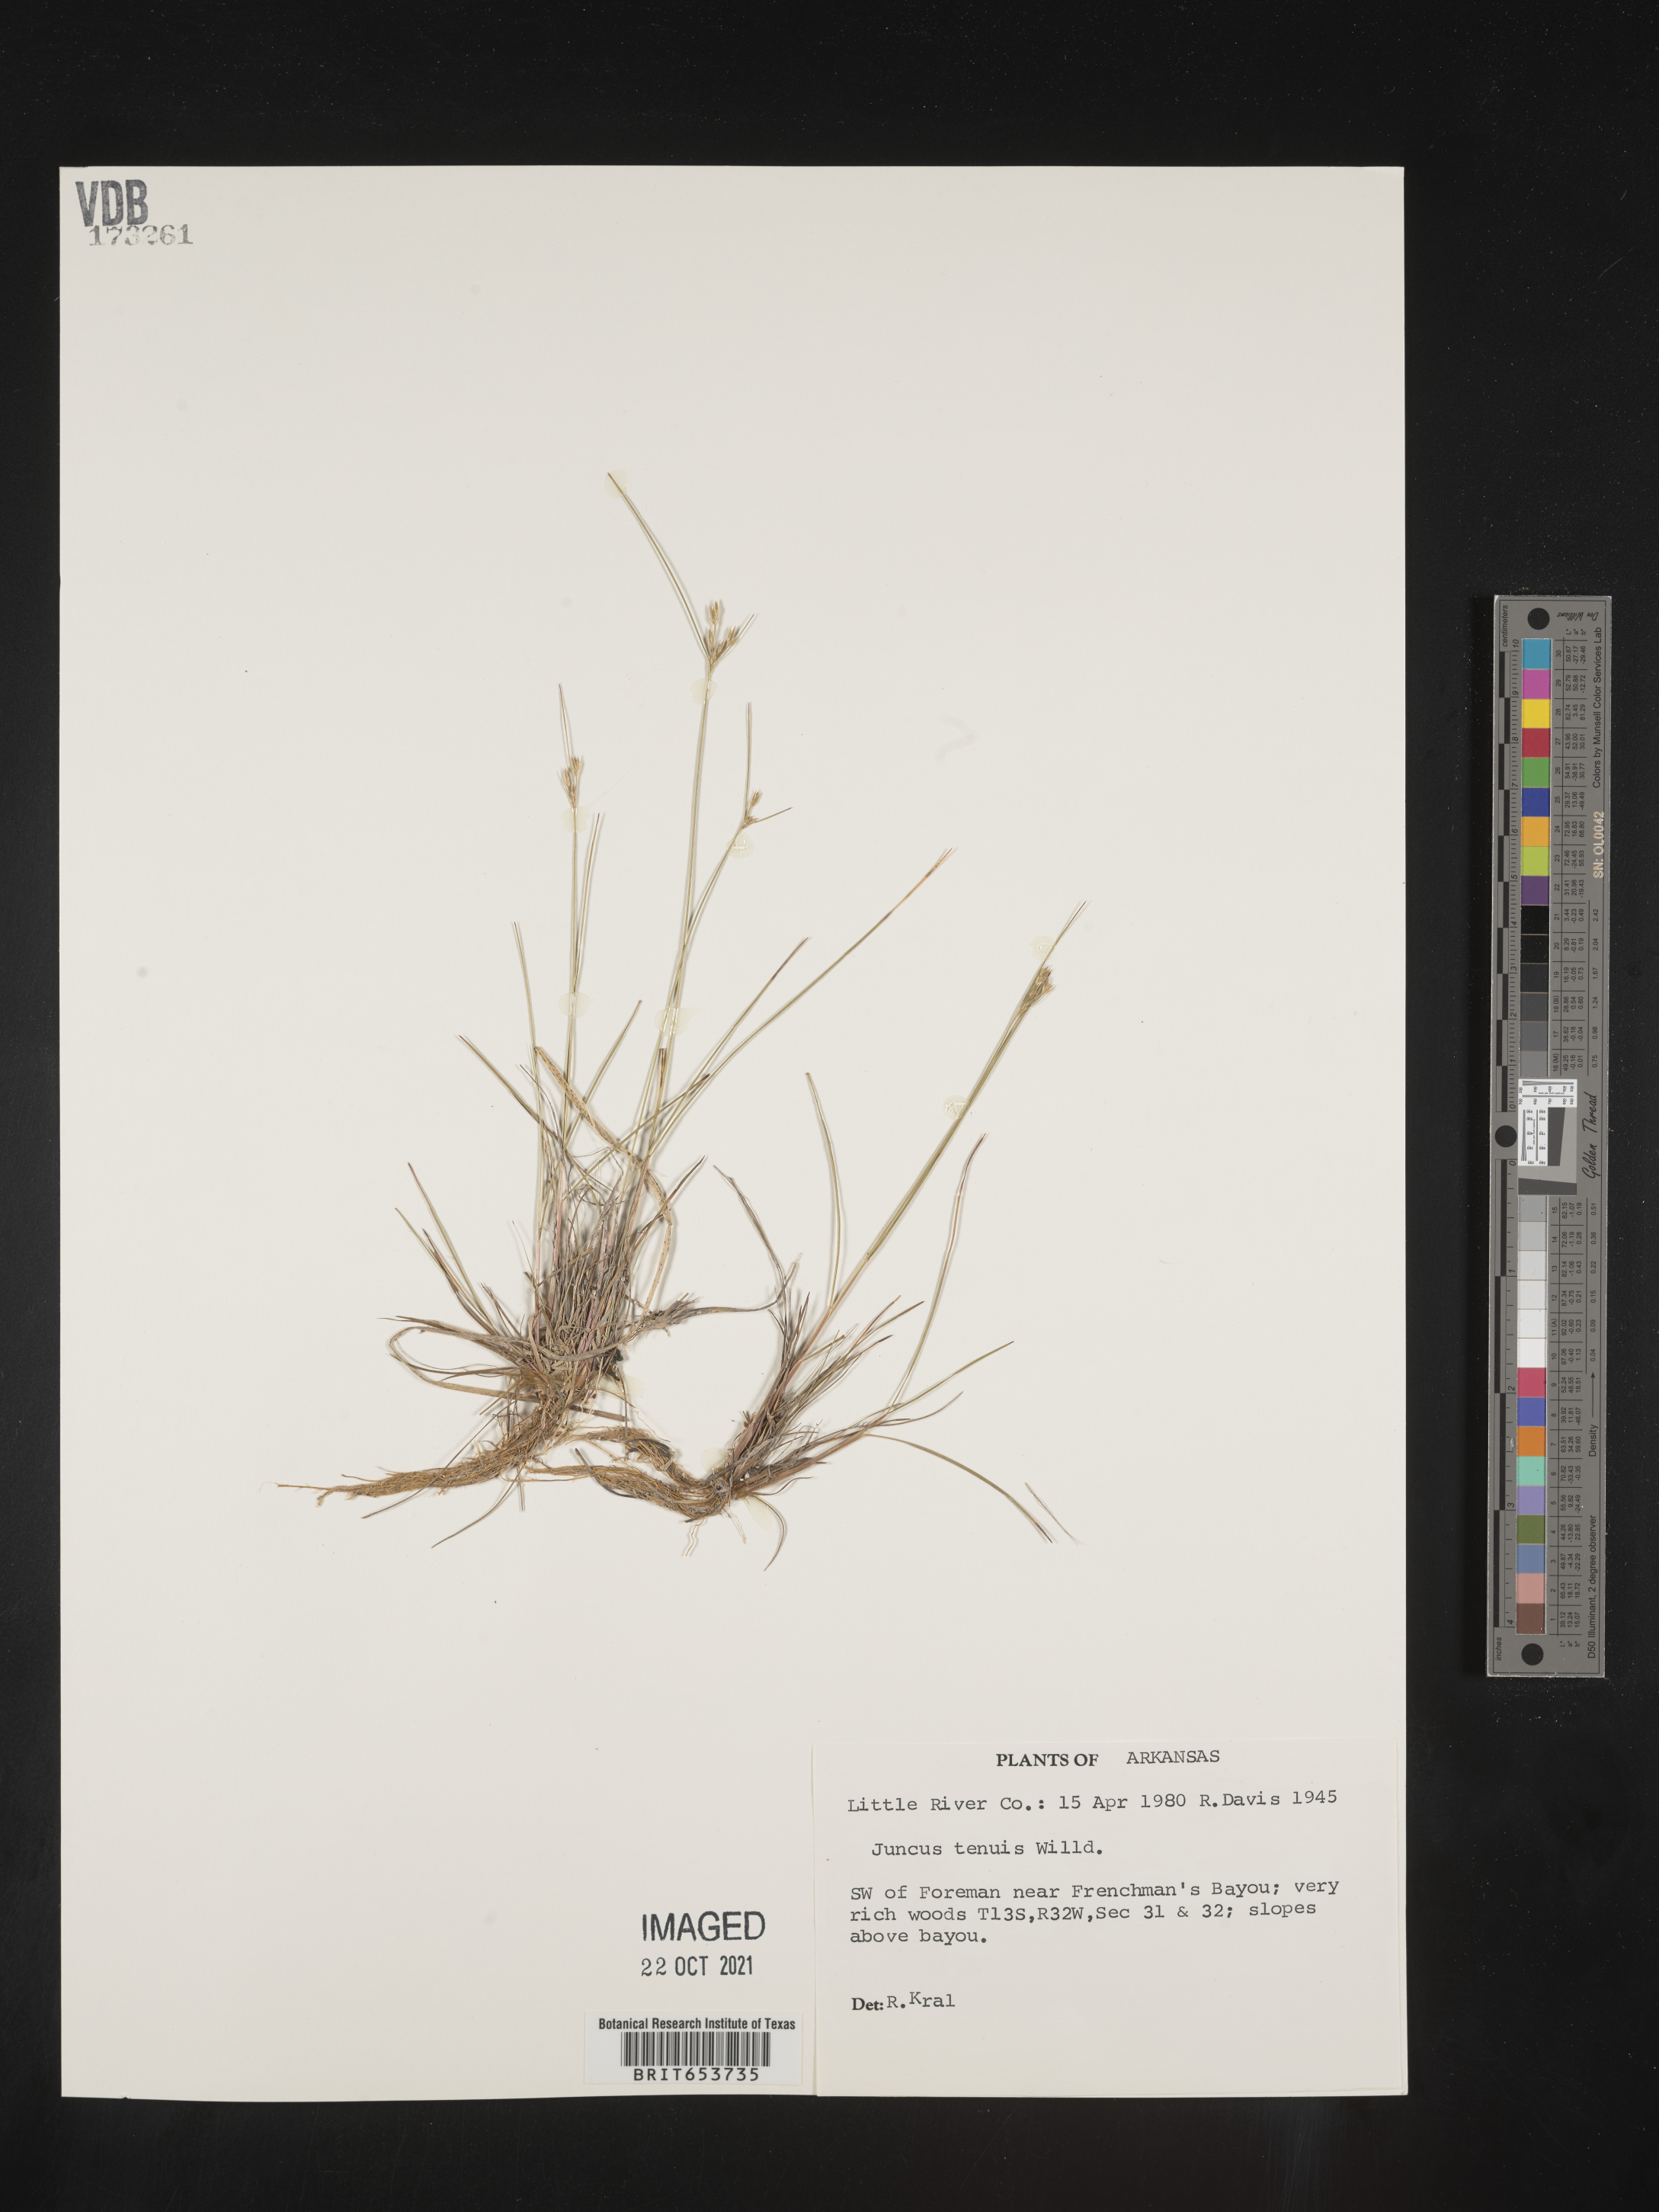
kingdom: Plantae
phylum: Tracheophyta
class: Liliopsida
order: Poales
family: Juncaceae
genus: Juncus
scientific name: Juncus tenuis
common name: Slender rush
